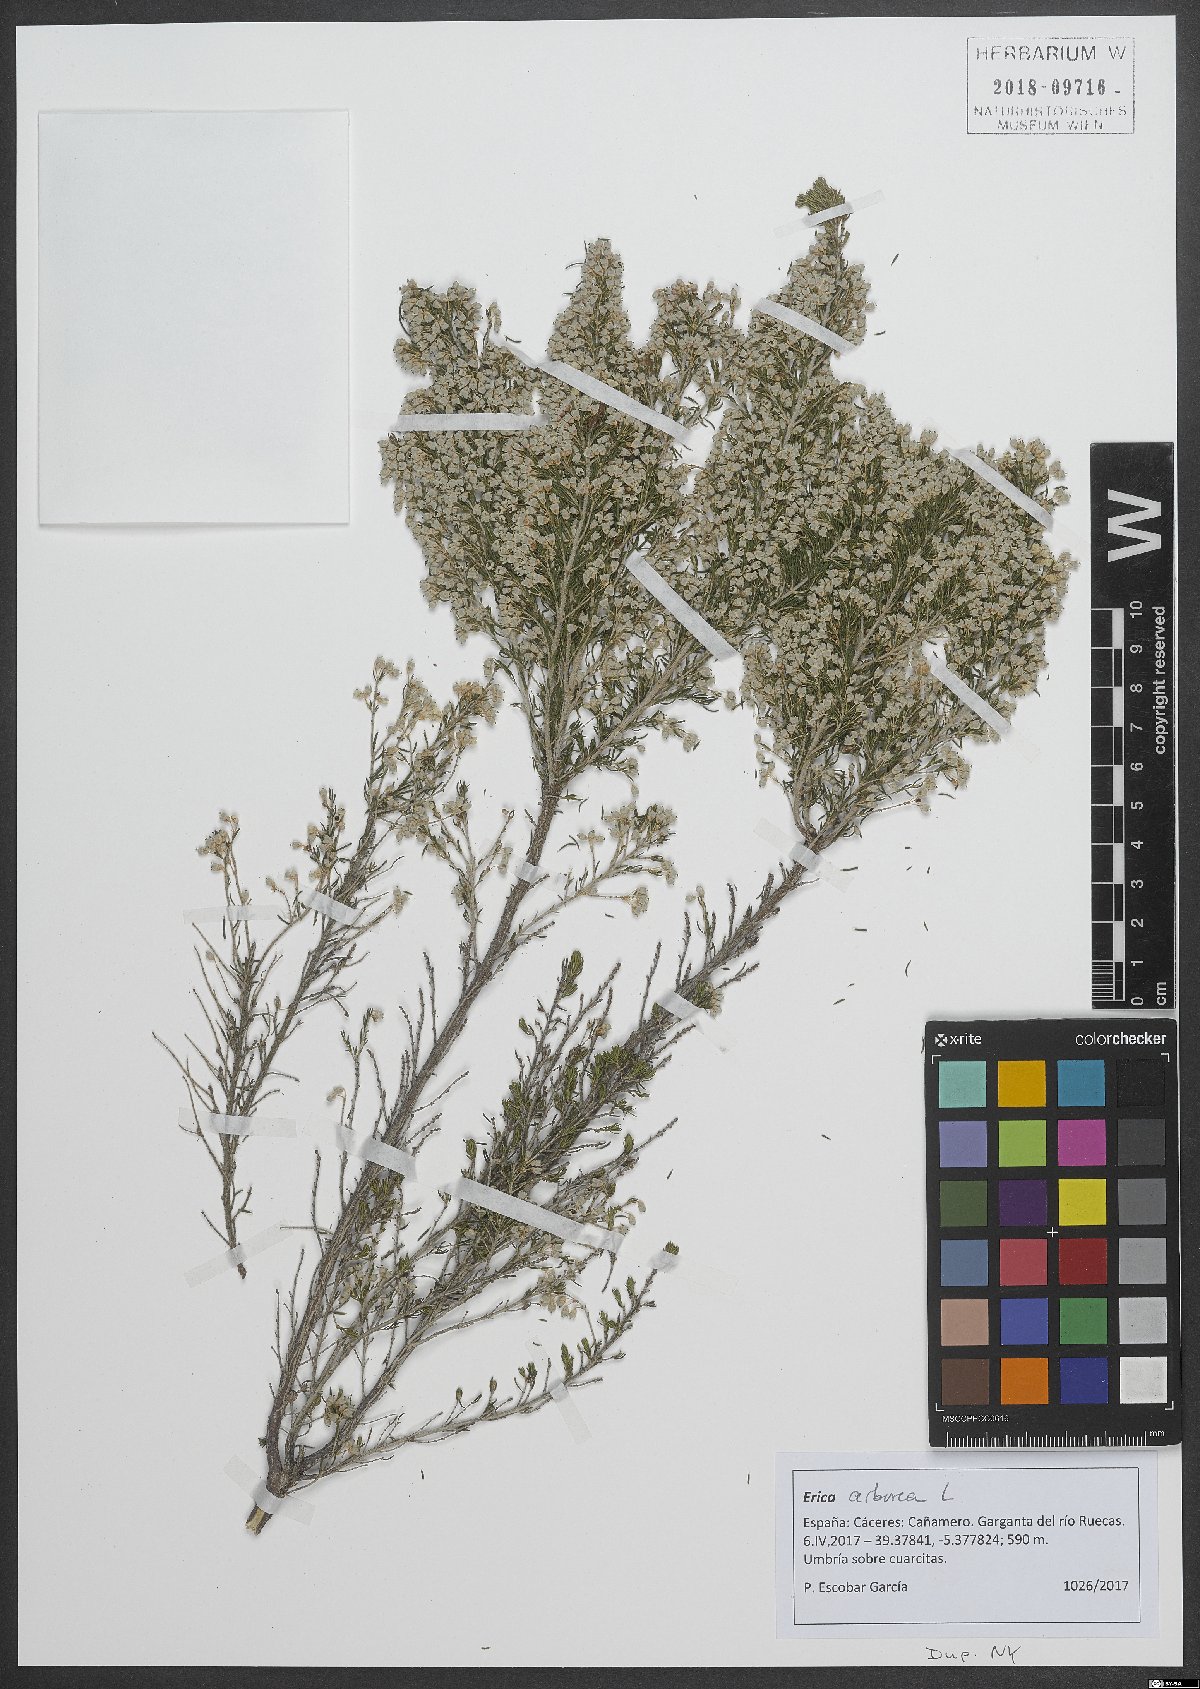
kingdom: Plantae
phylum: Tracheophyta
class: Magnoliopsida
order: Ericales
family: Ericaceae
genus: Erica
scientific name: Erica arborea
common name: Tree heath
